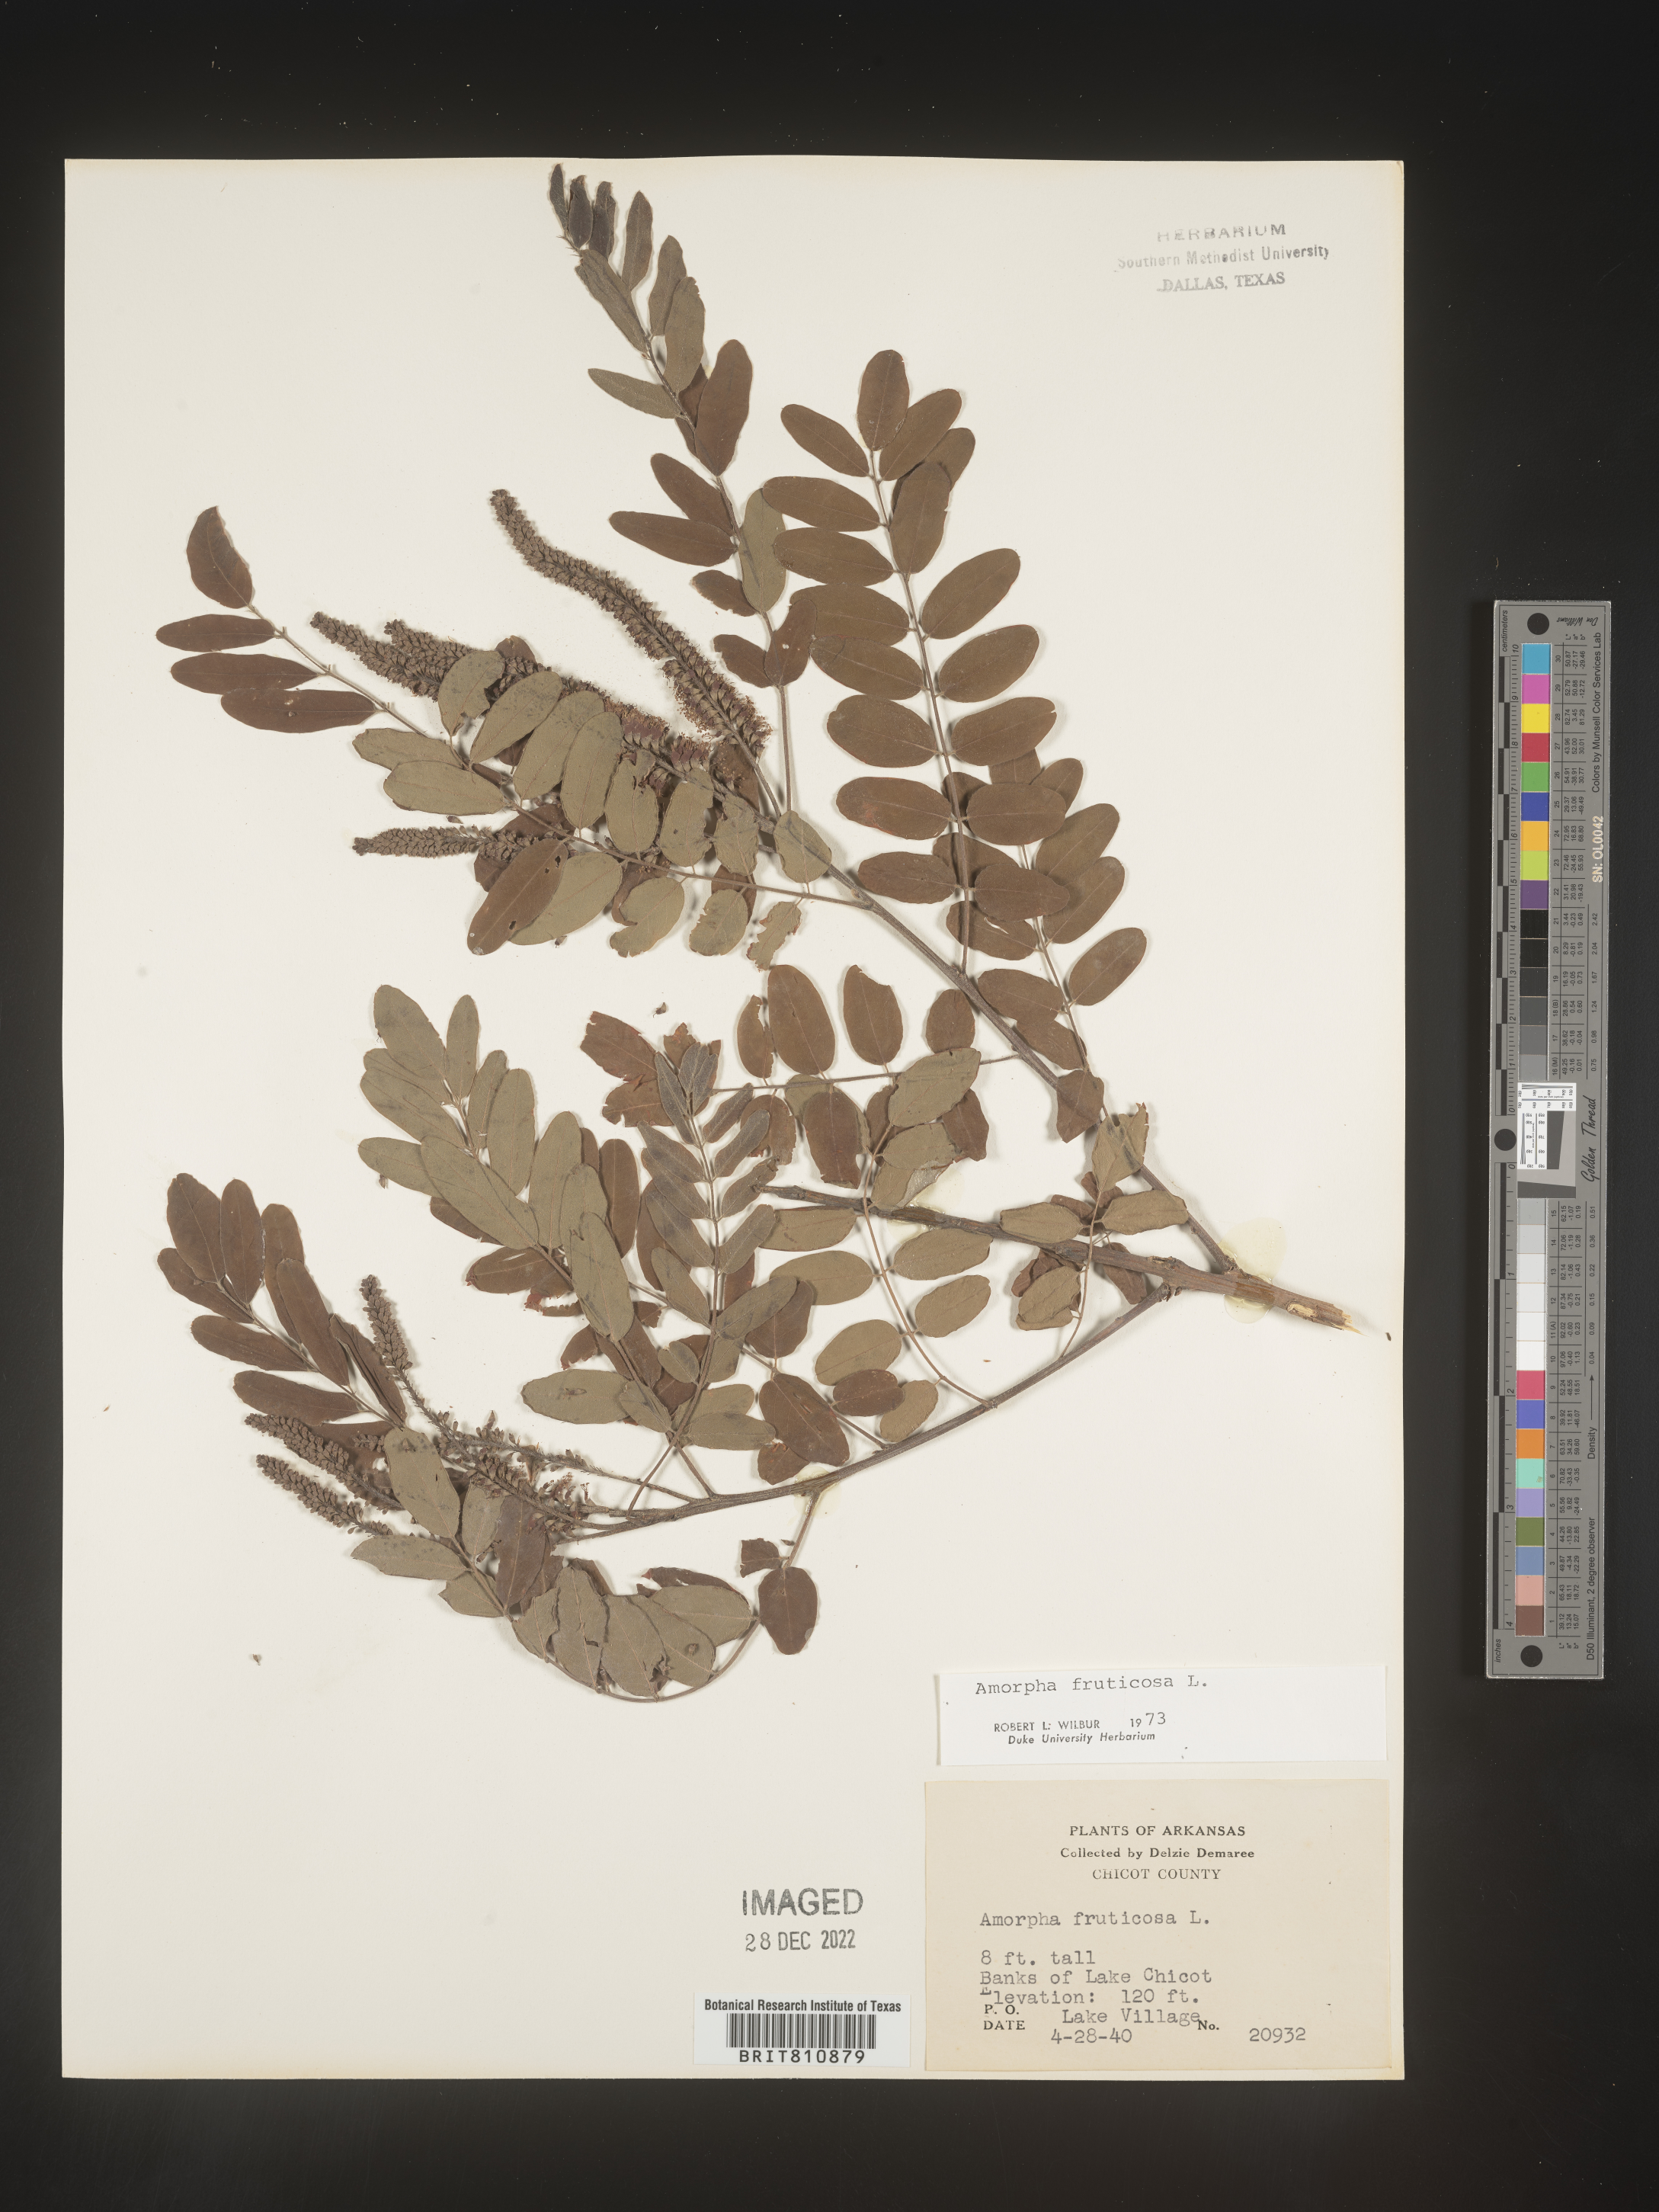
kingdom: Plantae
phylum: Tracheophyta
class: Magnoliopsida
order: Fabales
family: Fabaceae
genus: Amorpha
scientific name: Amorpha fruticosa
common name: False indigo
